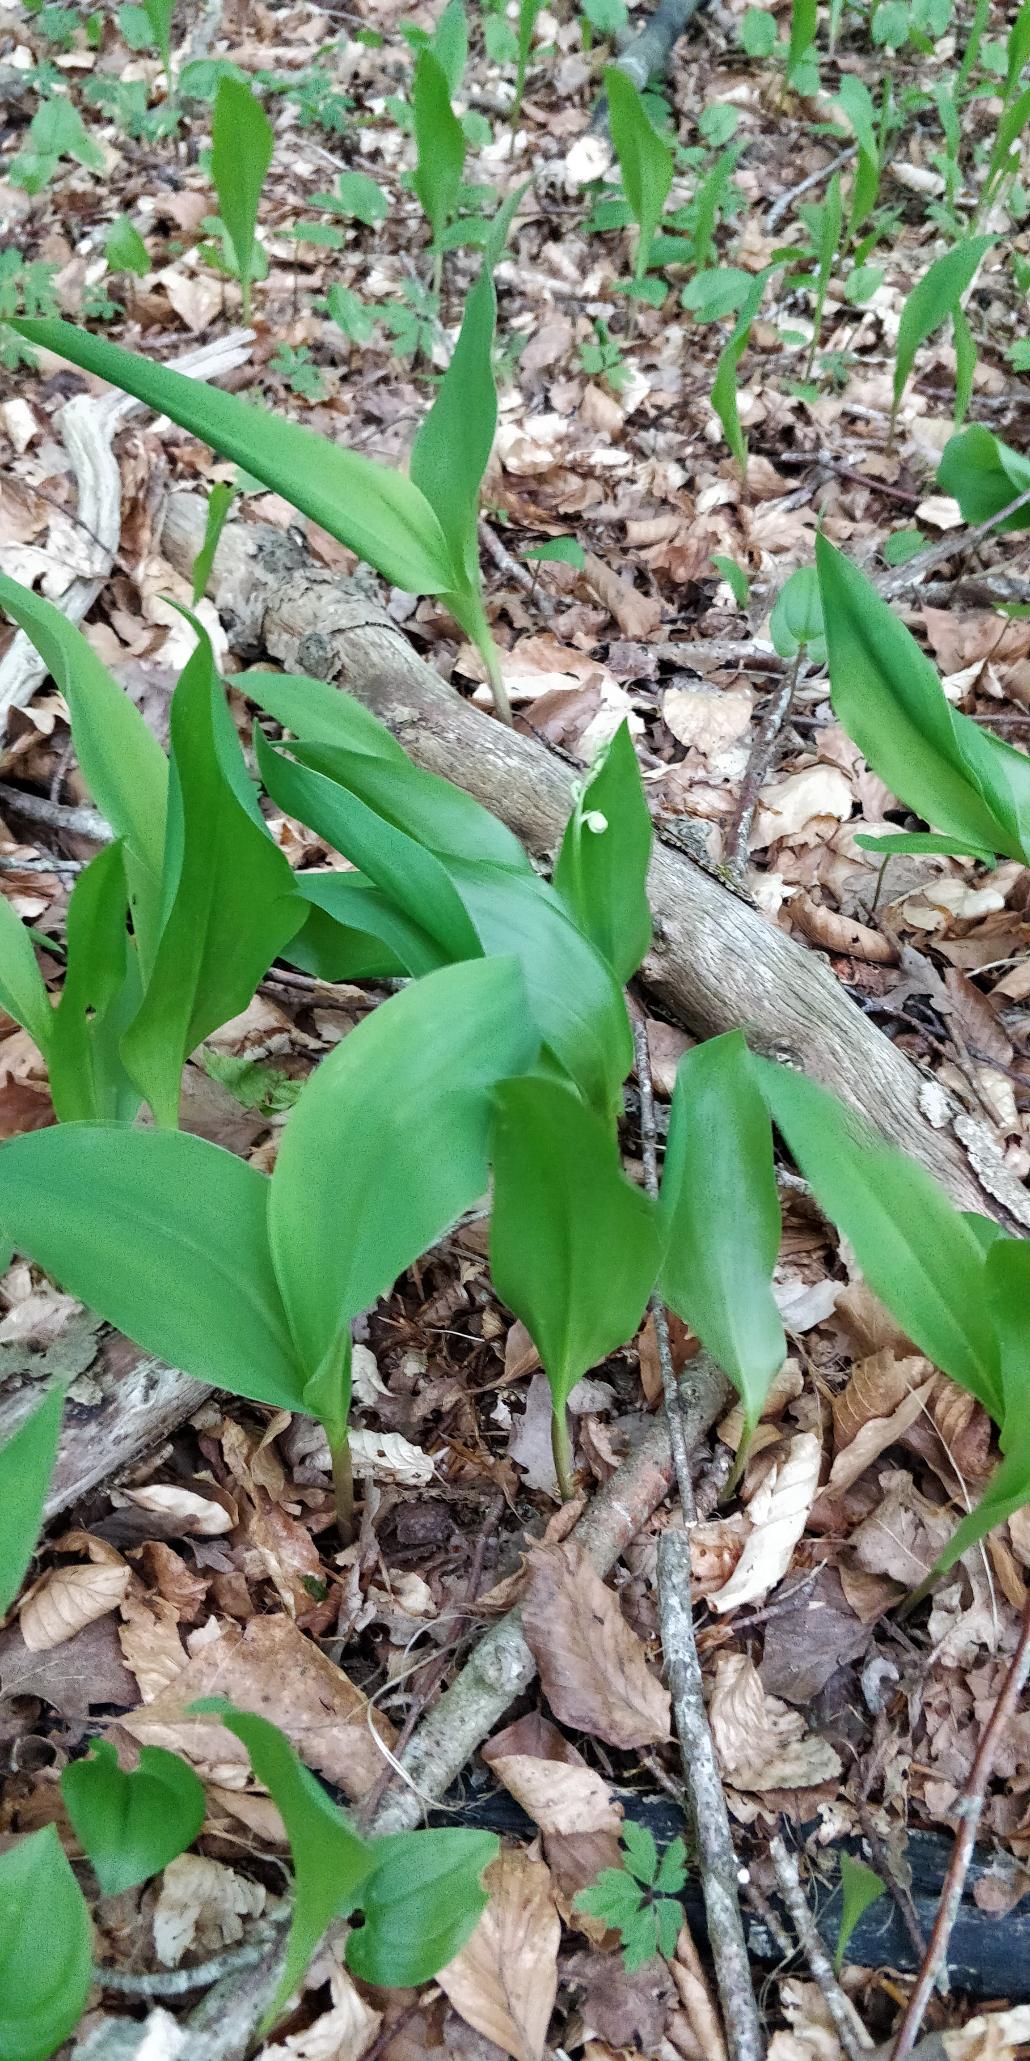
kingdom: Plantae
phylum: Tracheophyta
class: Liliopsida
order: Asparagales
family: Asparagaceae
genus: Convallaria
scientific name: Convallaria majalis
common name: Liljekonval
